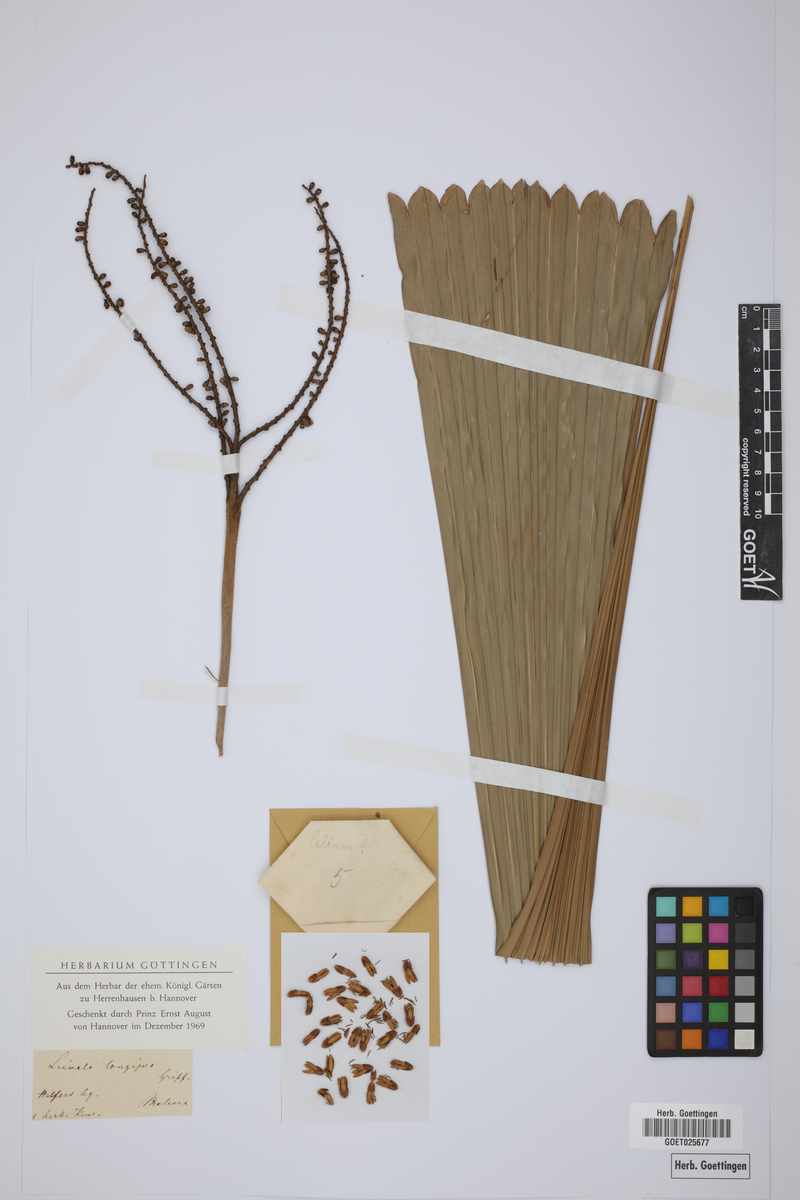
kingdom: Plantae
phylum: Tracheophyta
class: Liliopsida
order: Arecales
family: Arecaceae
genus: Licuala
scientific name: Licuala longipes
